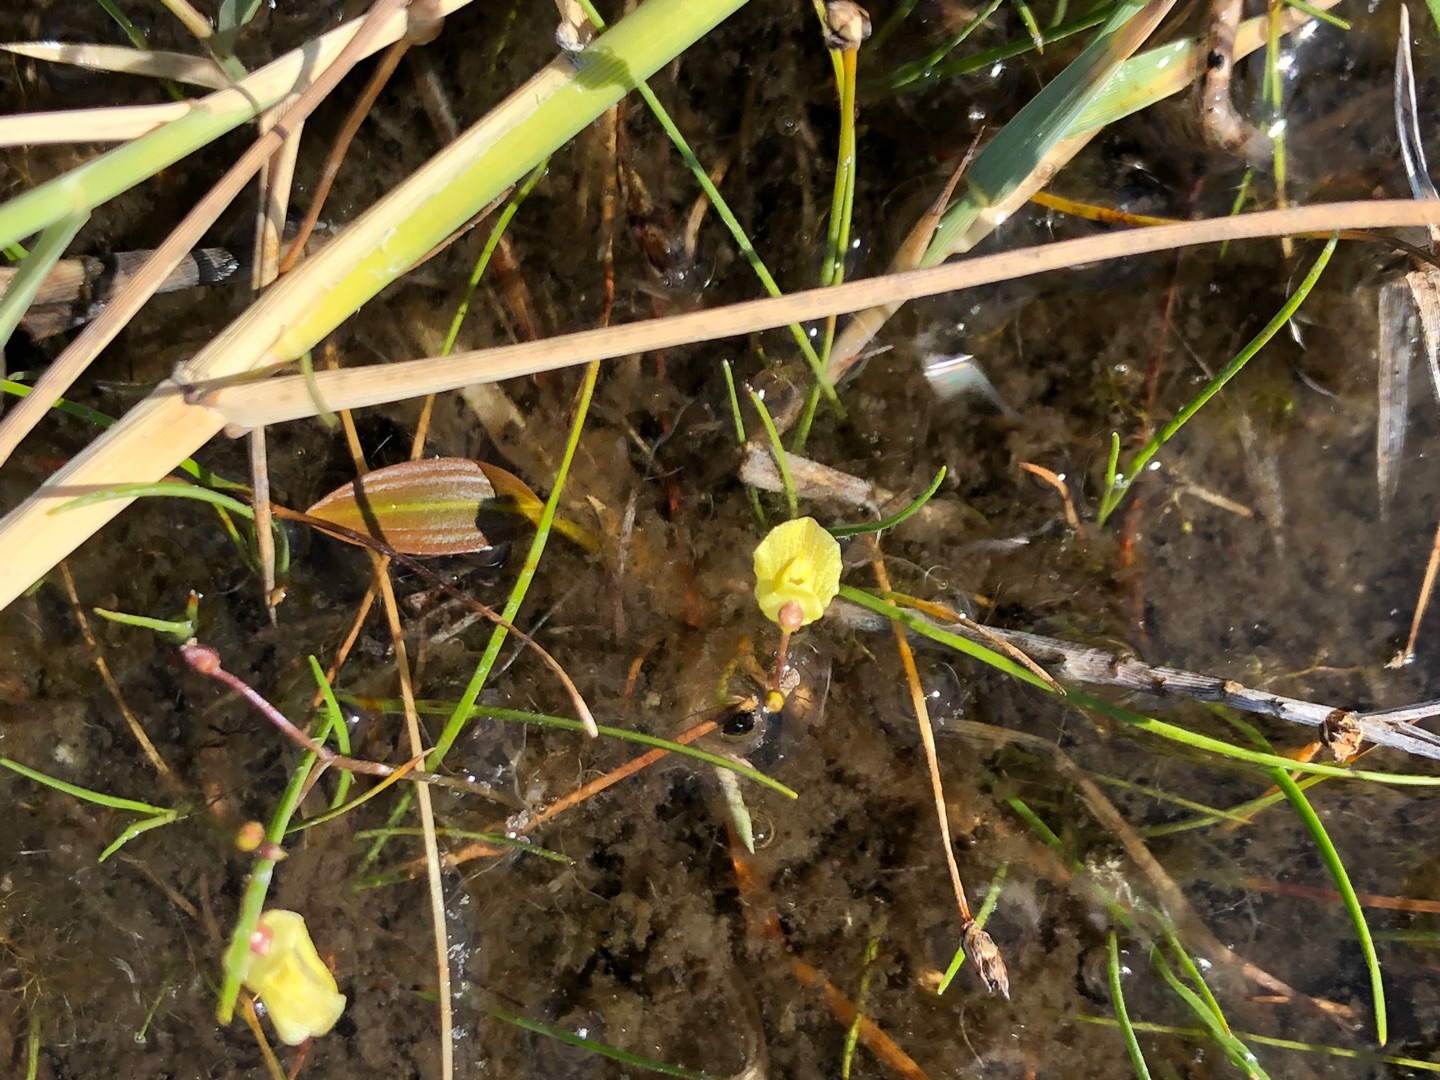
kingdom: Plantae
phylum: Tracheophyta
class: Magnoliopsida
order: Lamiales
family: Lentibulariaceae
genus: Utricularia
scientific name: Utricularia minor
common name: Liden blærerod
